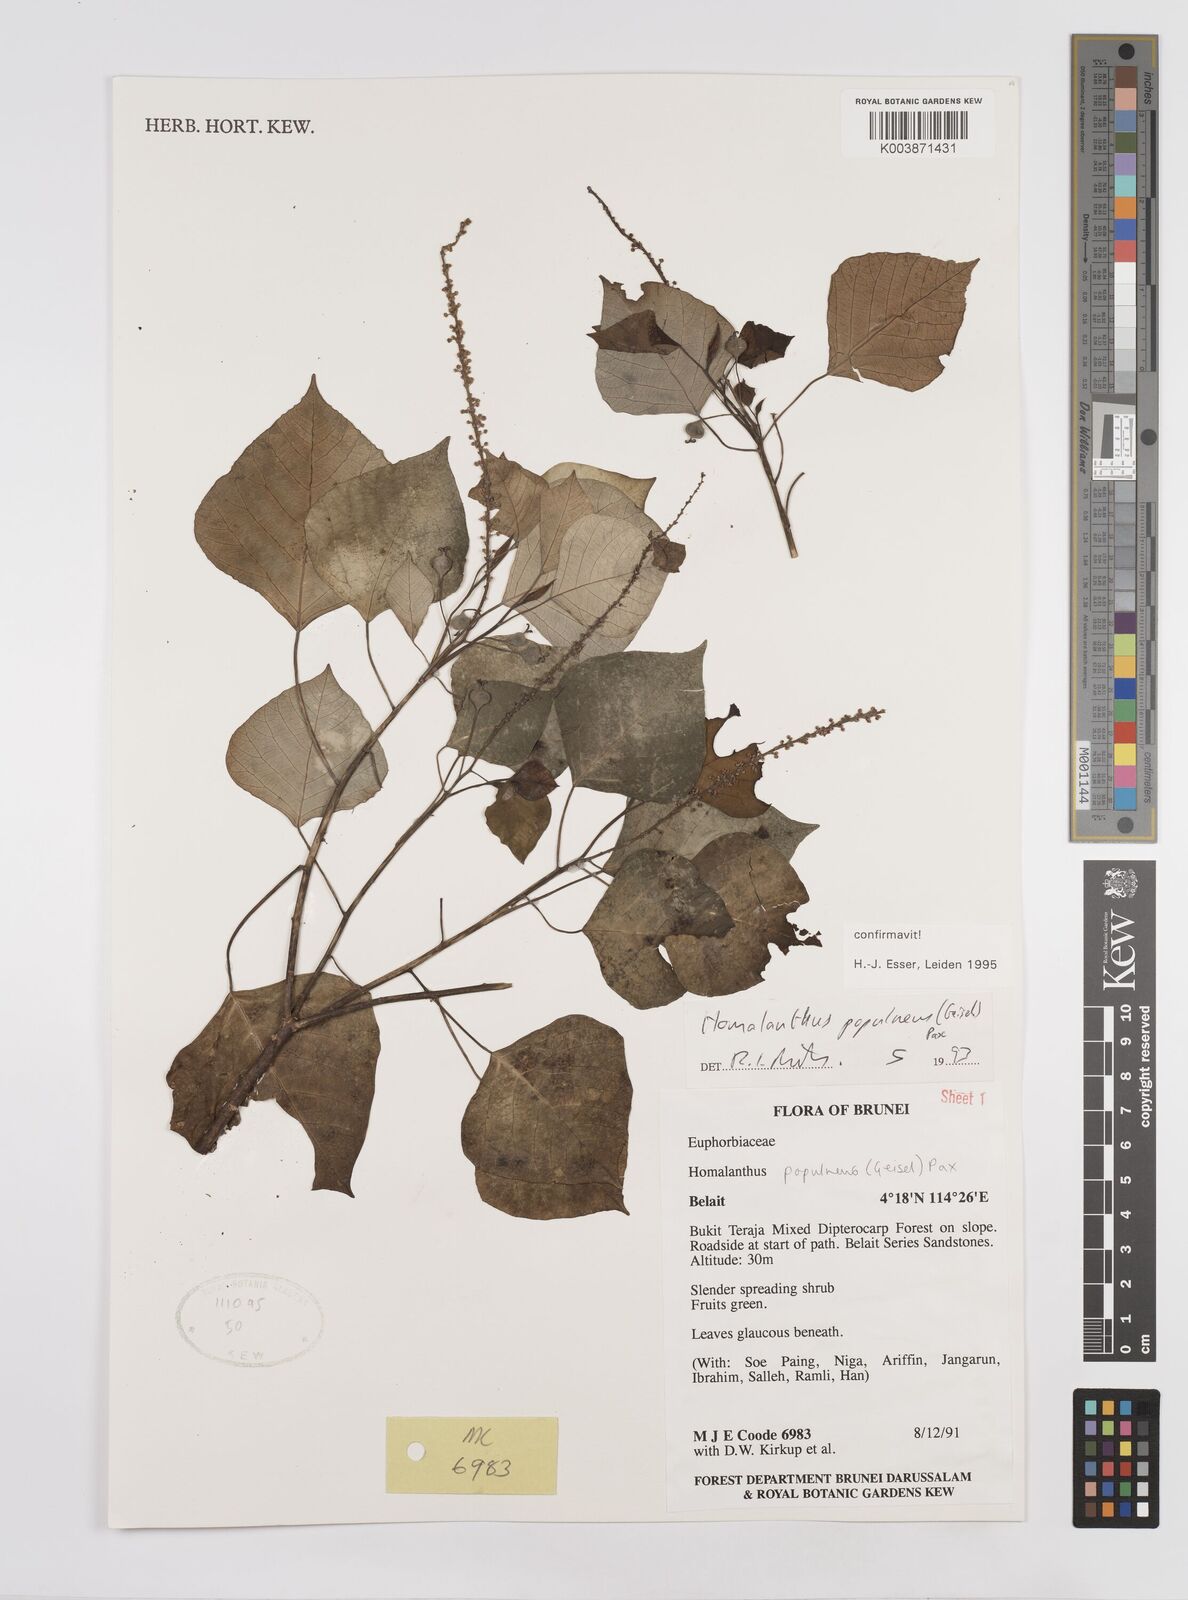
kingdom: Plantae
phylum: Tracheophyta
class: Magnoliopsida
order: Malpighiales
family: Euphorbiaceae
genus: Homalanthus
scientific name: Homalanthus populneus
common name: Spurge
